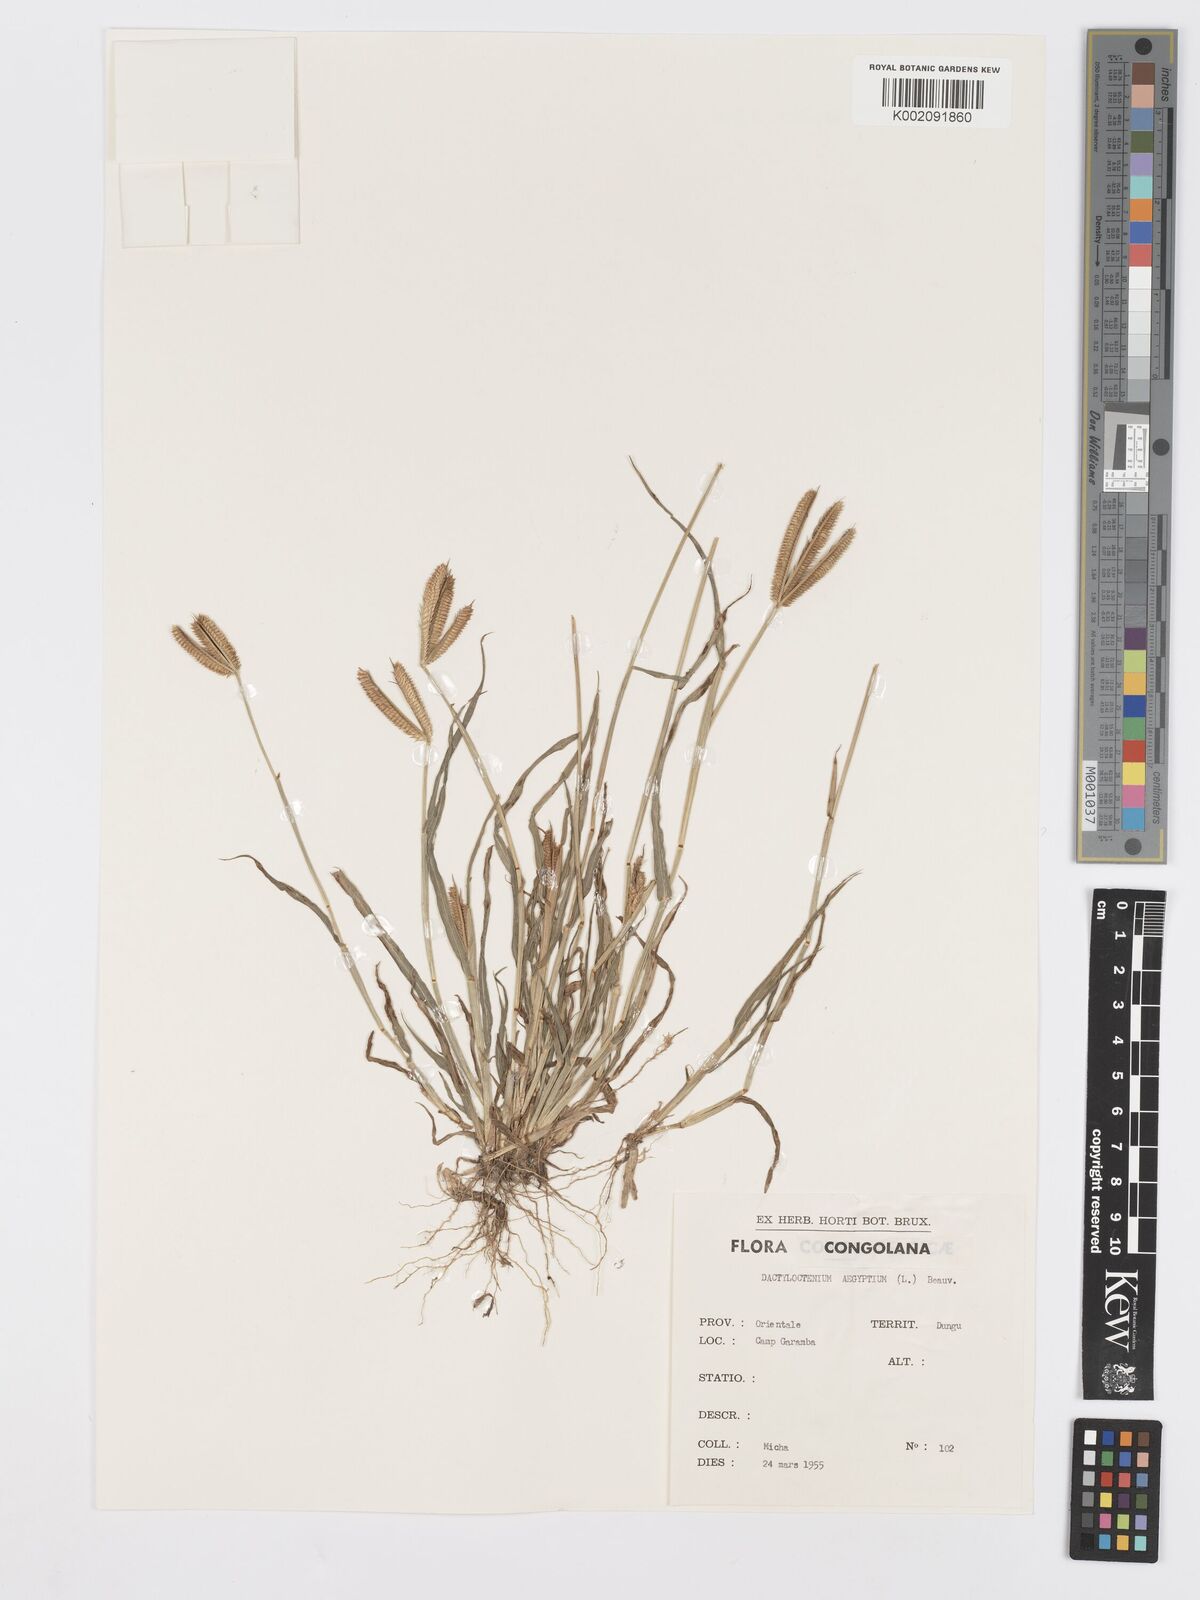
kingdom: Plantae
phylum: Tracheophyta
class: Liliopsida
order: Poales
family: Poaceae
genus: Dactyloctenium
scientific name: Dactyloctenium aegyptium
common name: Egyptian grass
